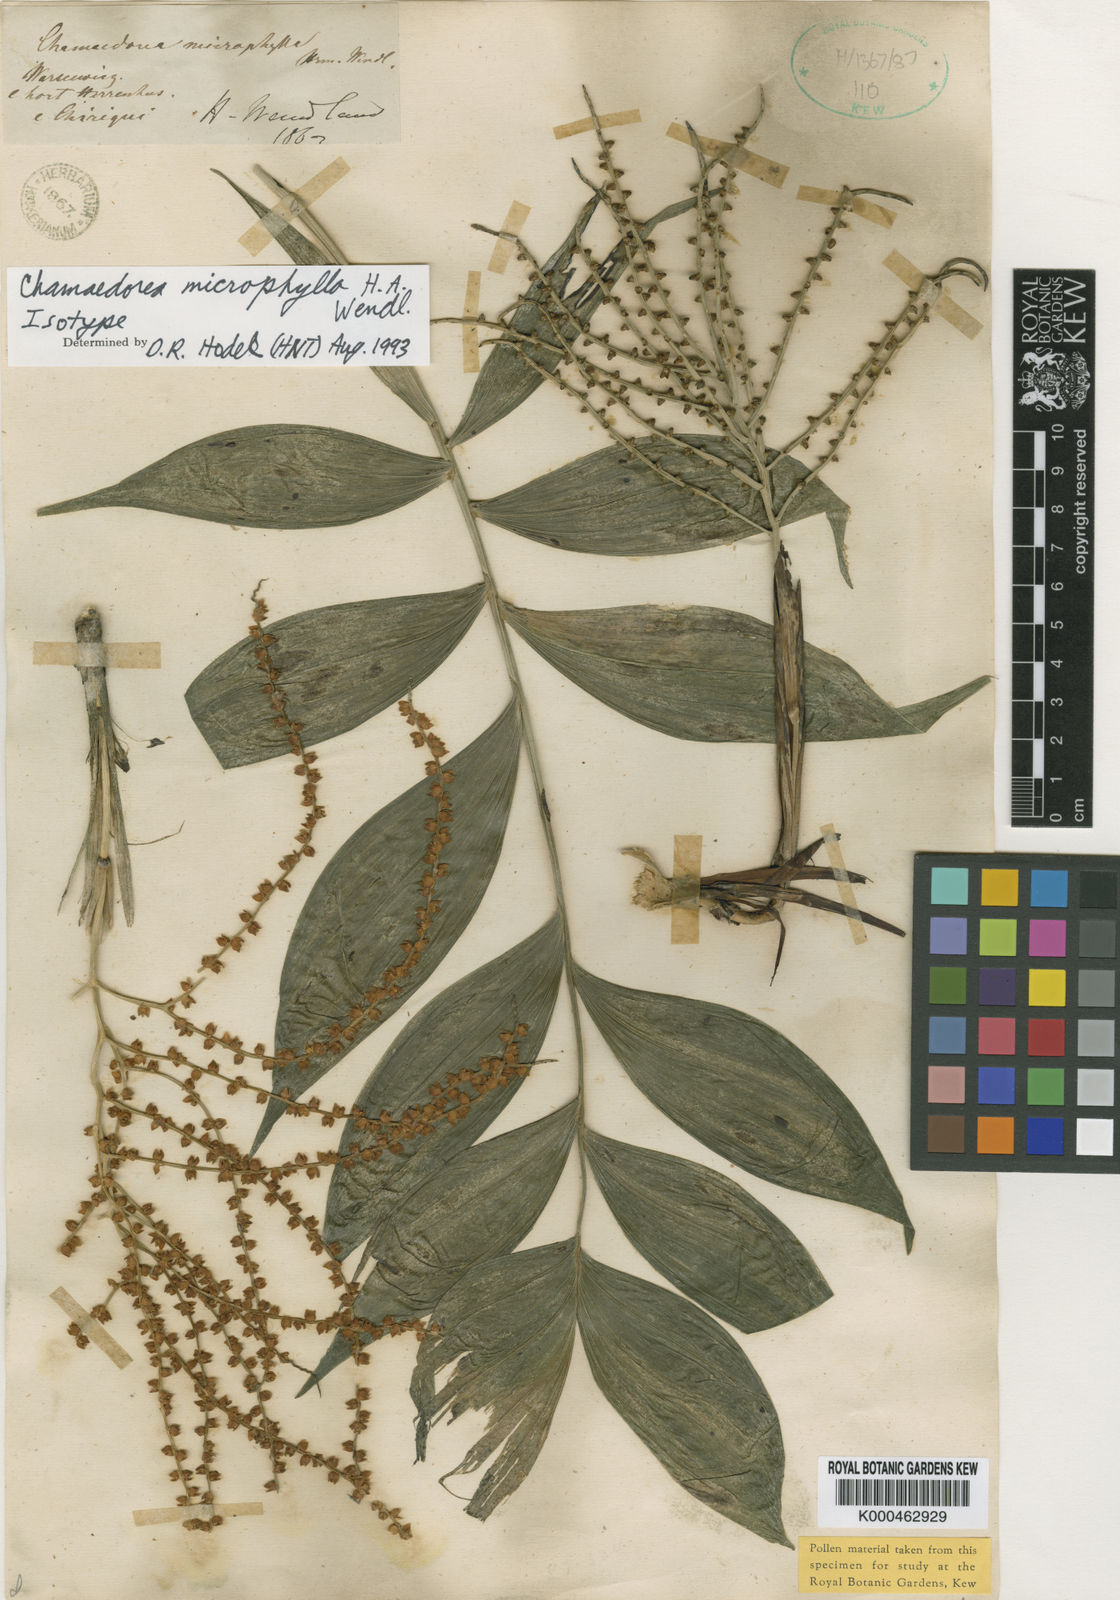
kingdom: Plantae
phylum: Tracheophyta
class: Liliopsida
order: Arecales
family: Arecaceae
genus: Chamaedorea
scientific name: Chamaedorea microphylla
